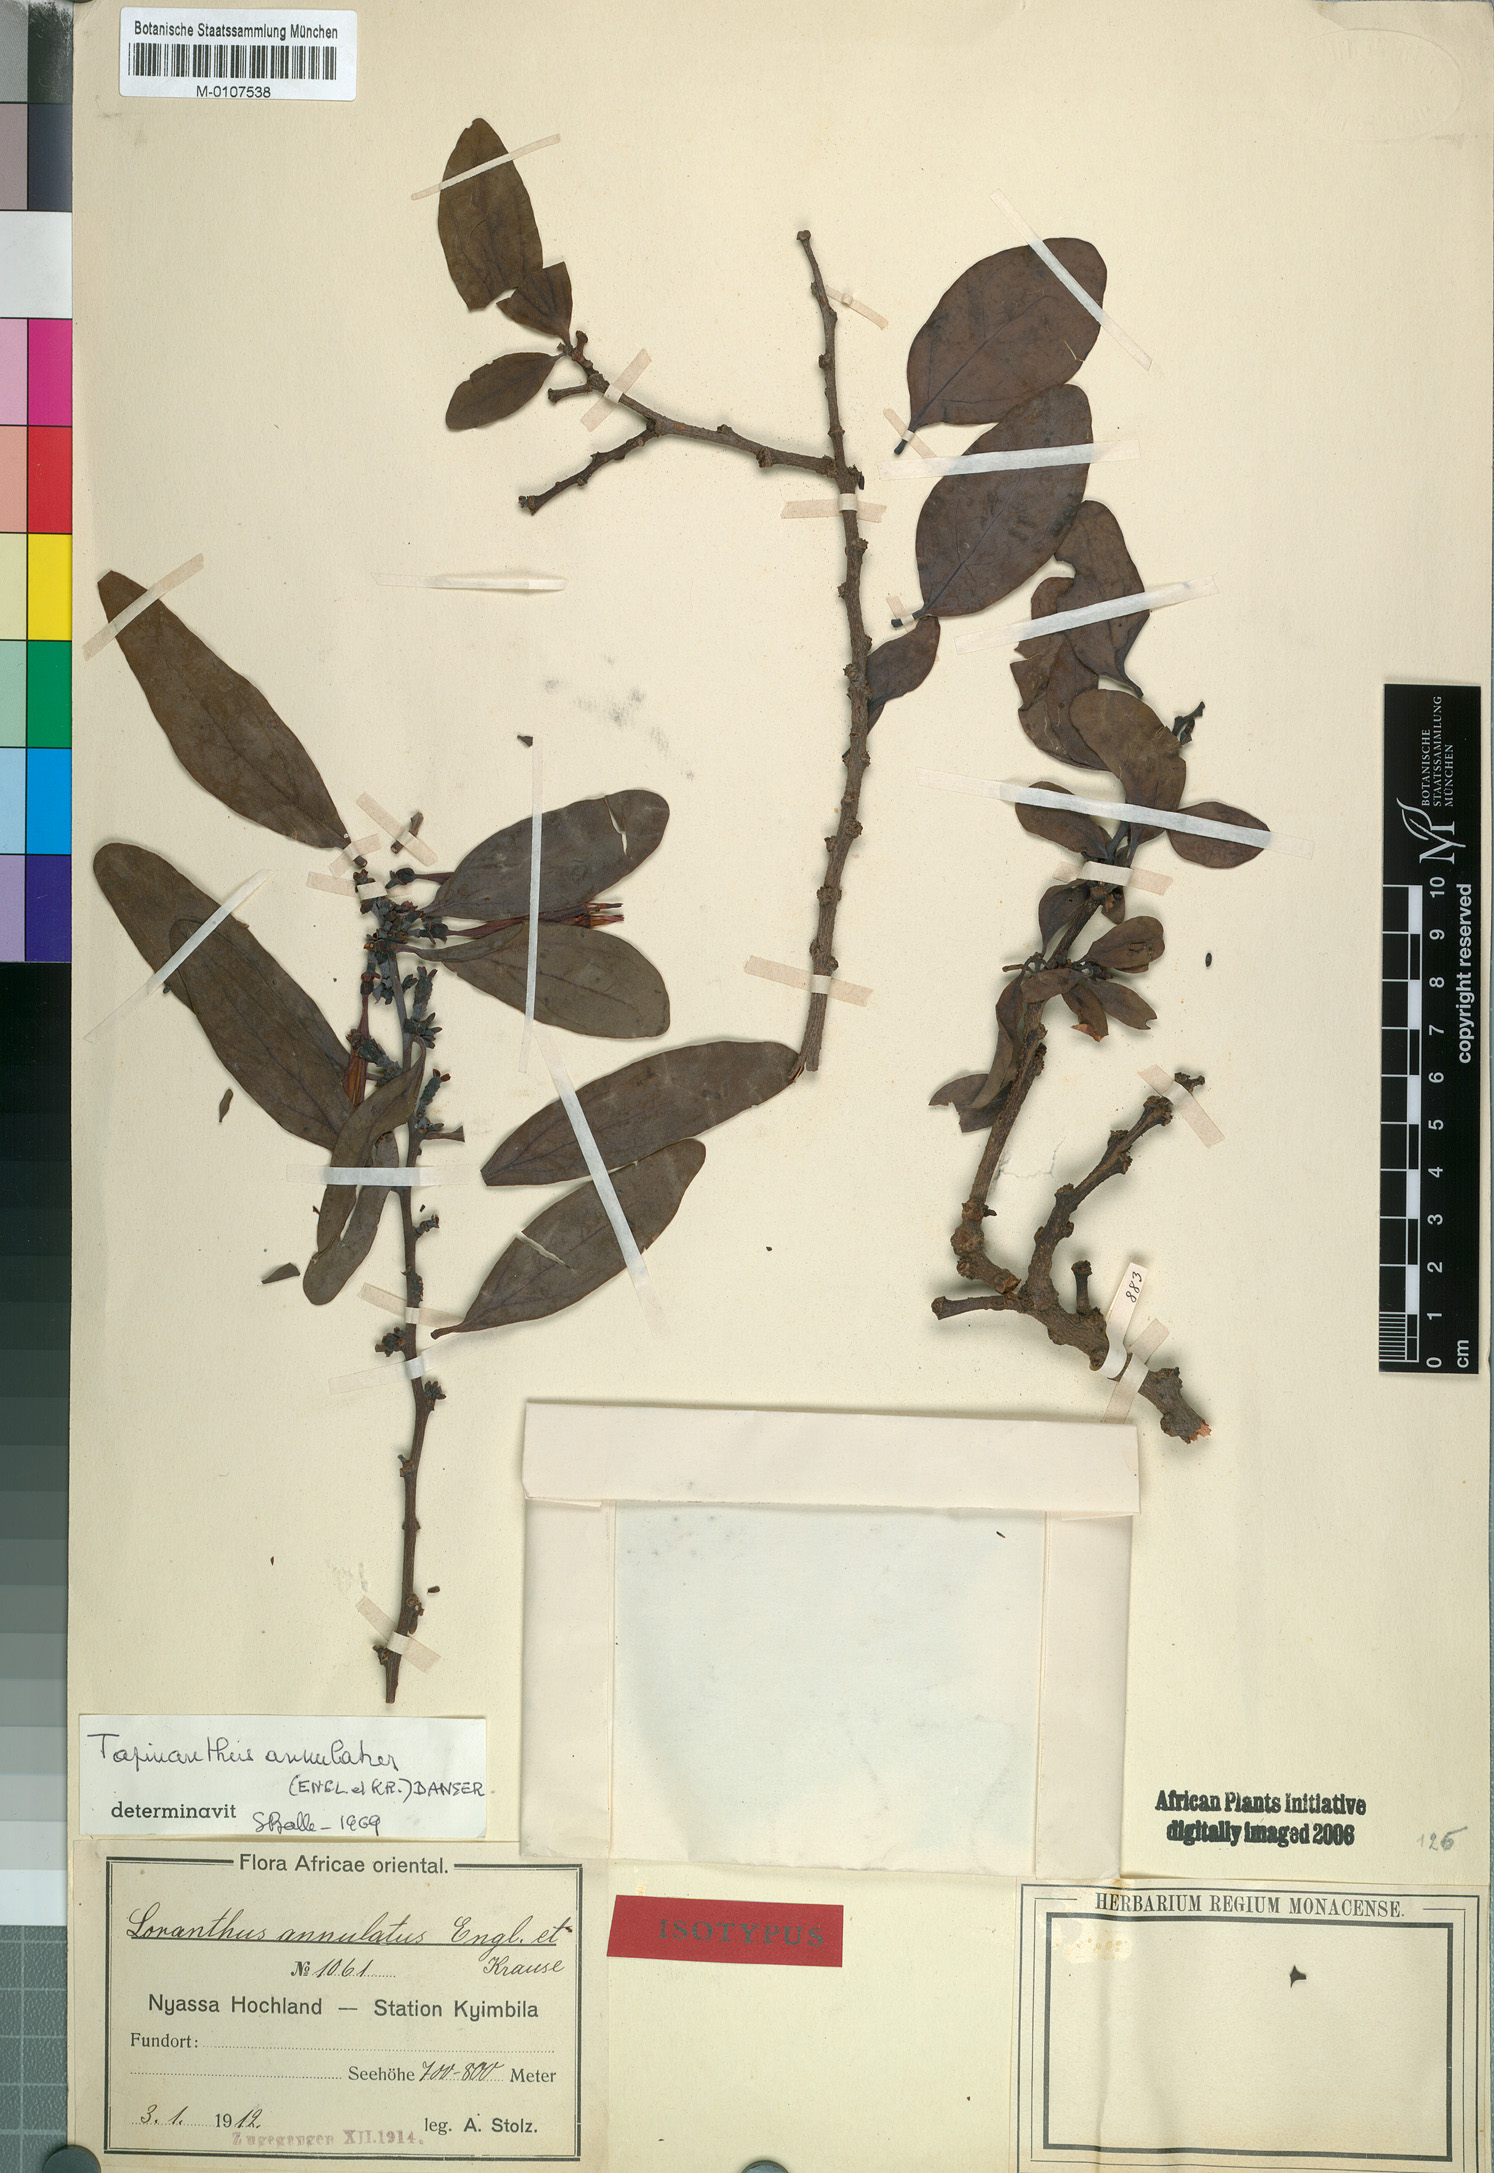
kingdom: Plantae
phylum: Tracheophyta
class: Magnoliopsida
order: Santalales
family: Loranthaceae
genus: Agelanthus
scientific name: Agelanthus fuellebornii
